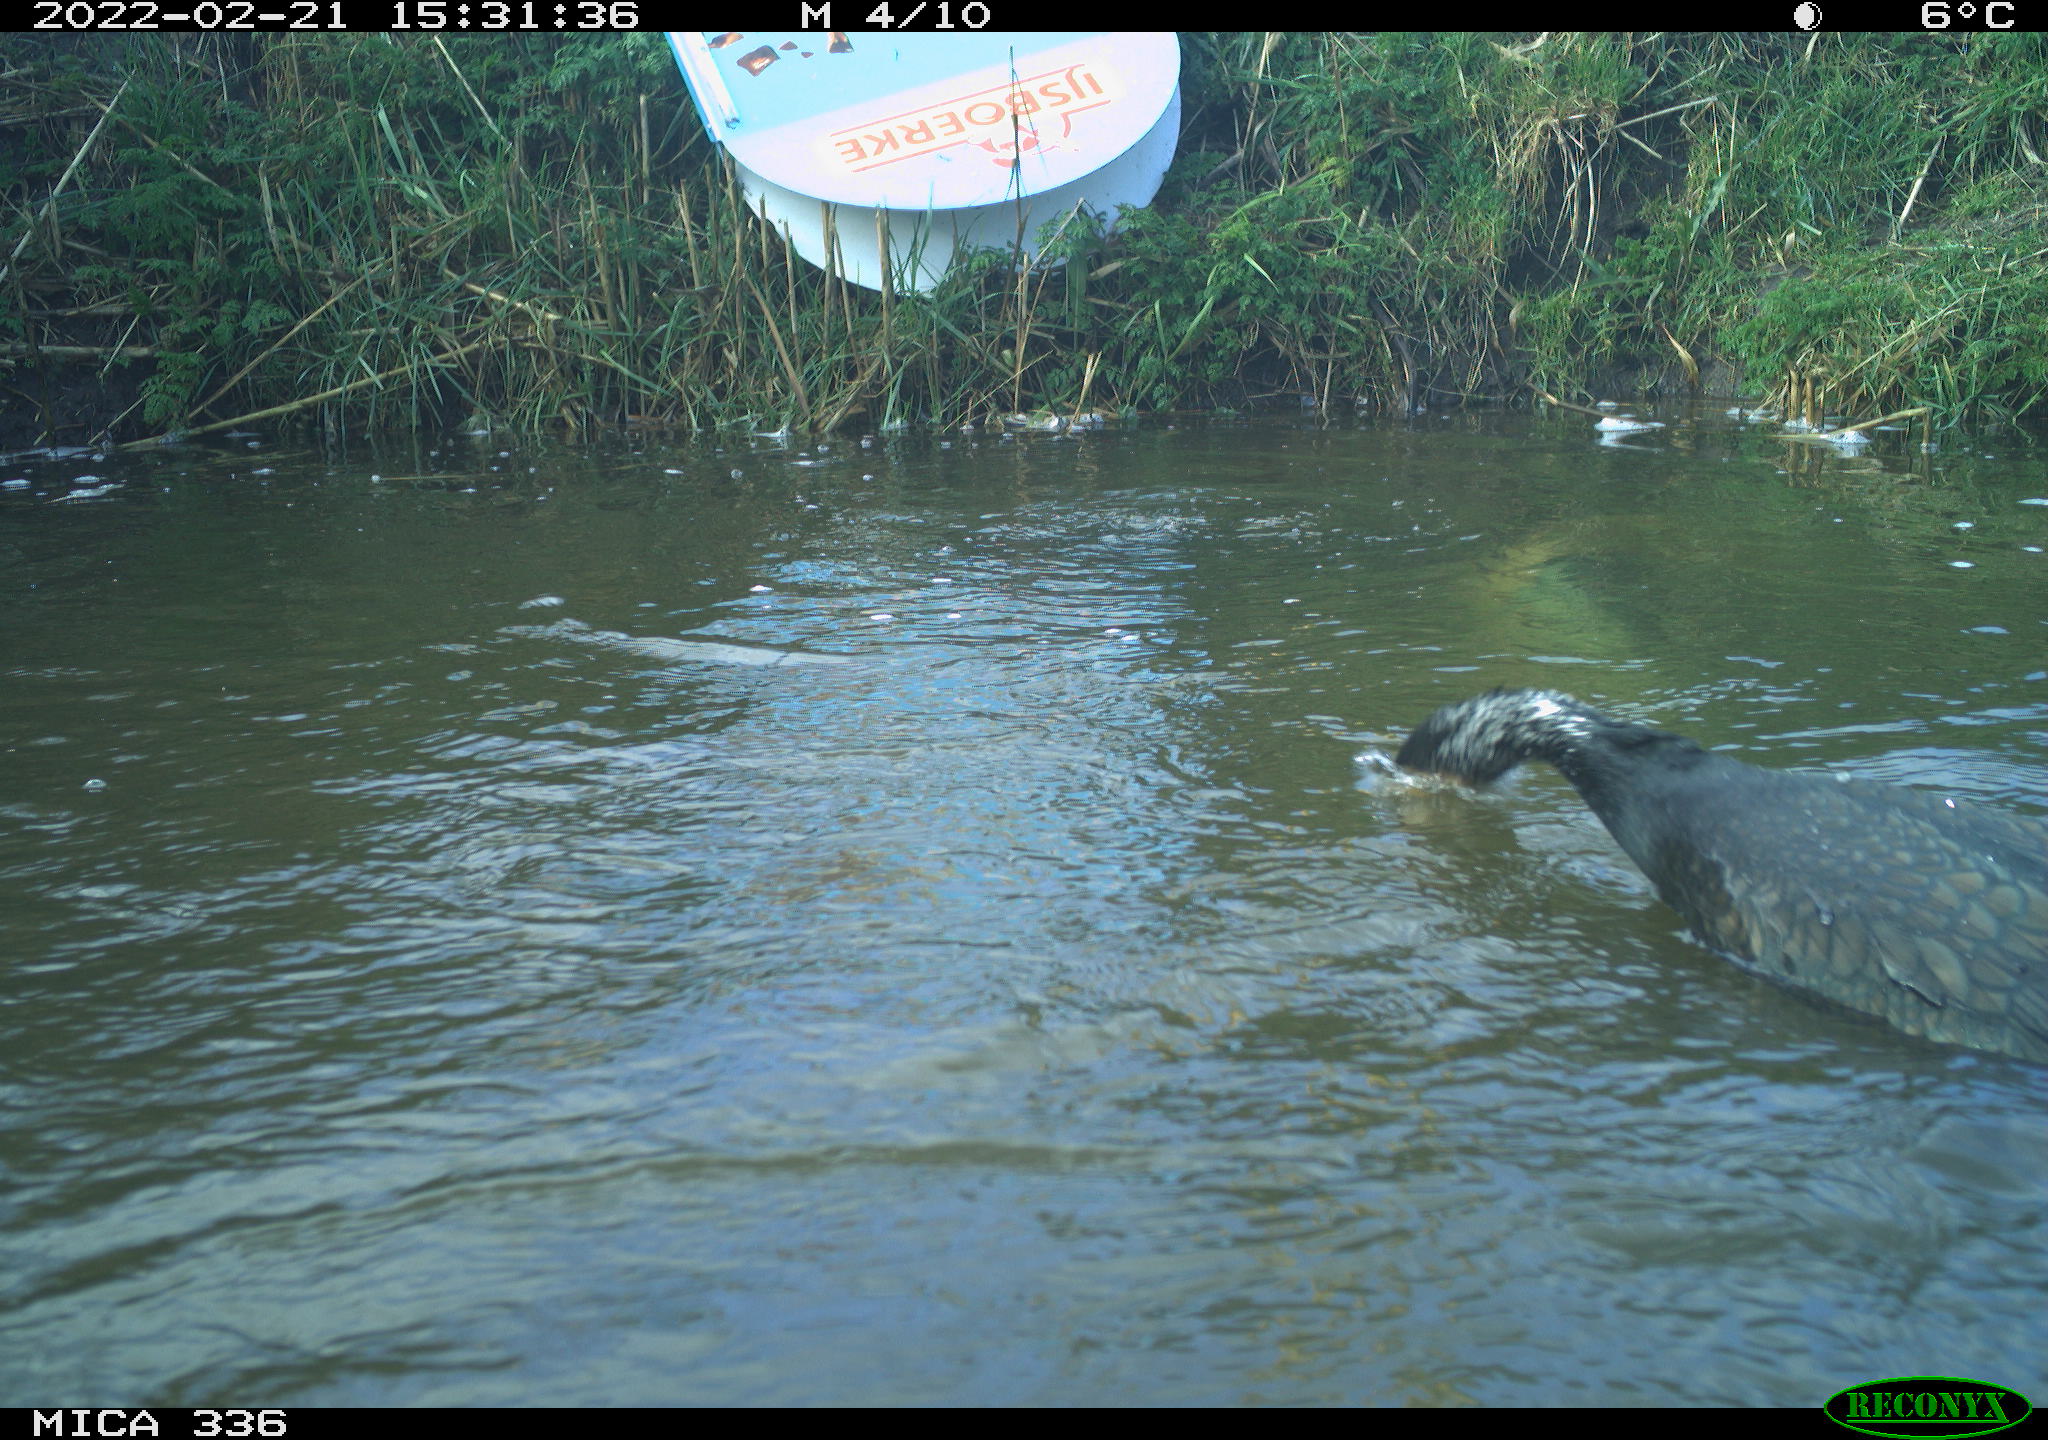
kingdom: Animalia
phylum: Chordata
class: Aves
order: Suliformes
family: Phalacrocoracidae
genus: Phalacrocorax
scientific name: Phalacrocorax carbo
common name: Great cormorant
